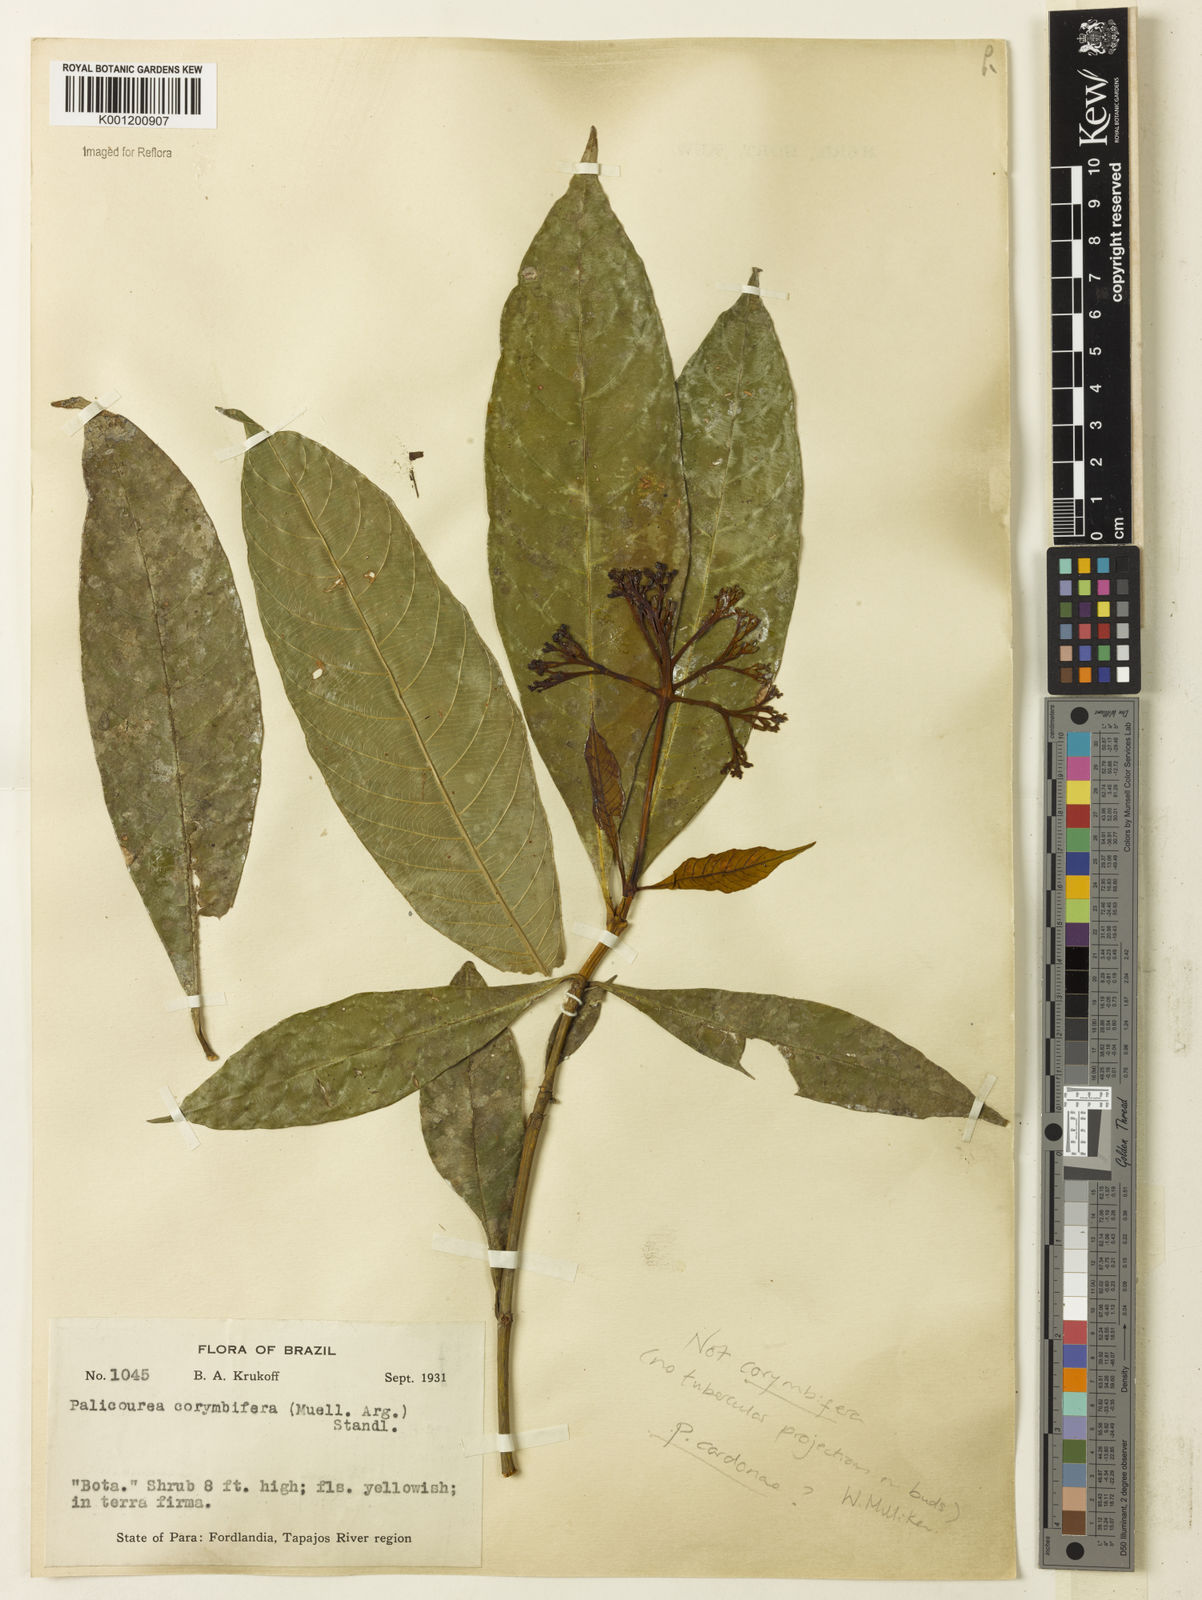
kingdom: Plantae
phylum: Tracheophyta
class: Magnoliopsida
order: Gentianales
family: Rubiaceae
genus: Palicourea
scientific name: Palicourea
